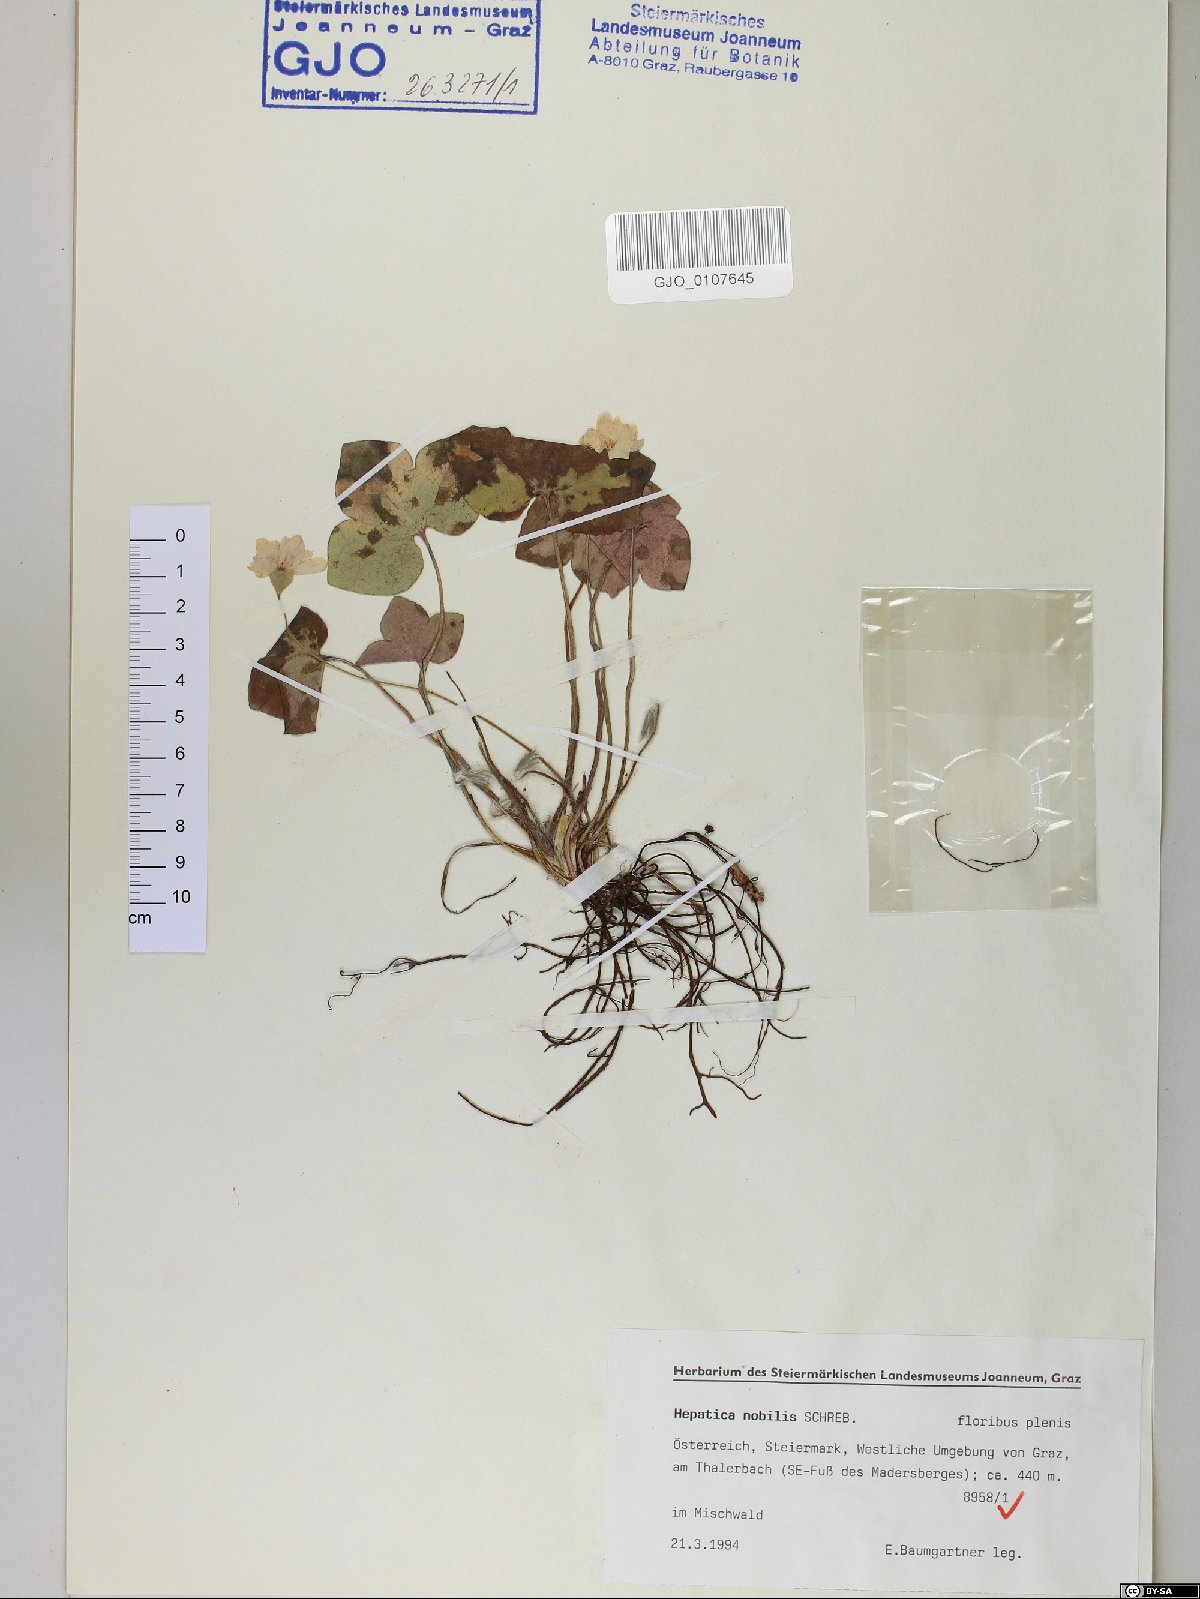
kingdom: Plantae
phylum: Tracheophyta
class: Magnoliopsida
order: Ranunculales
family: Ranunculaceae
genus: Hepatica
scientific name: Hepatica nobilis
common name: Liverleaf
